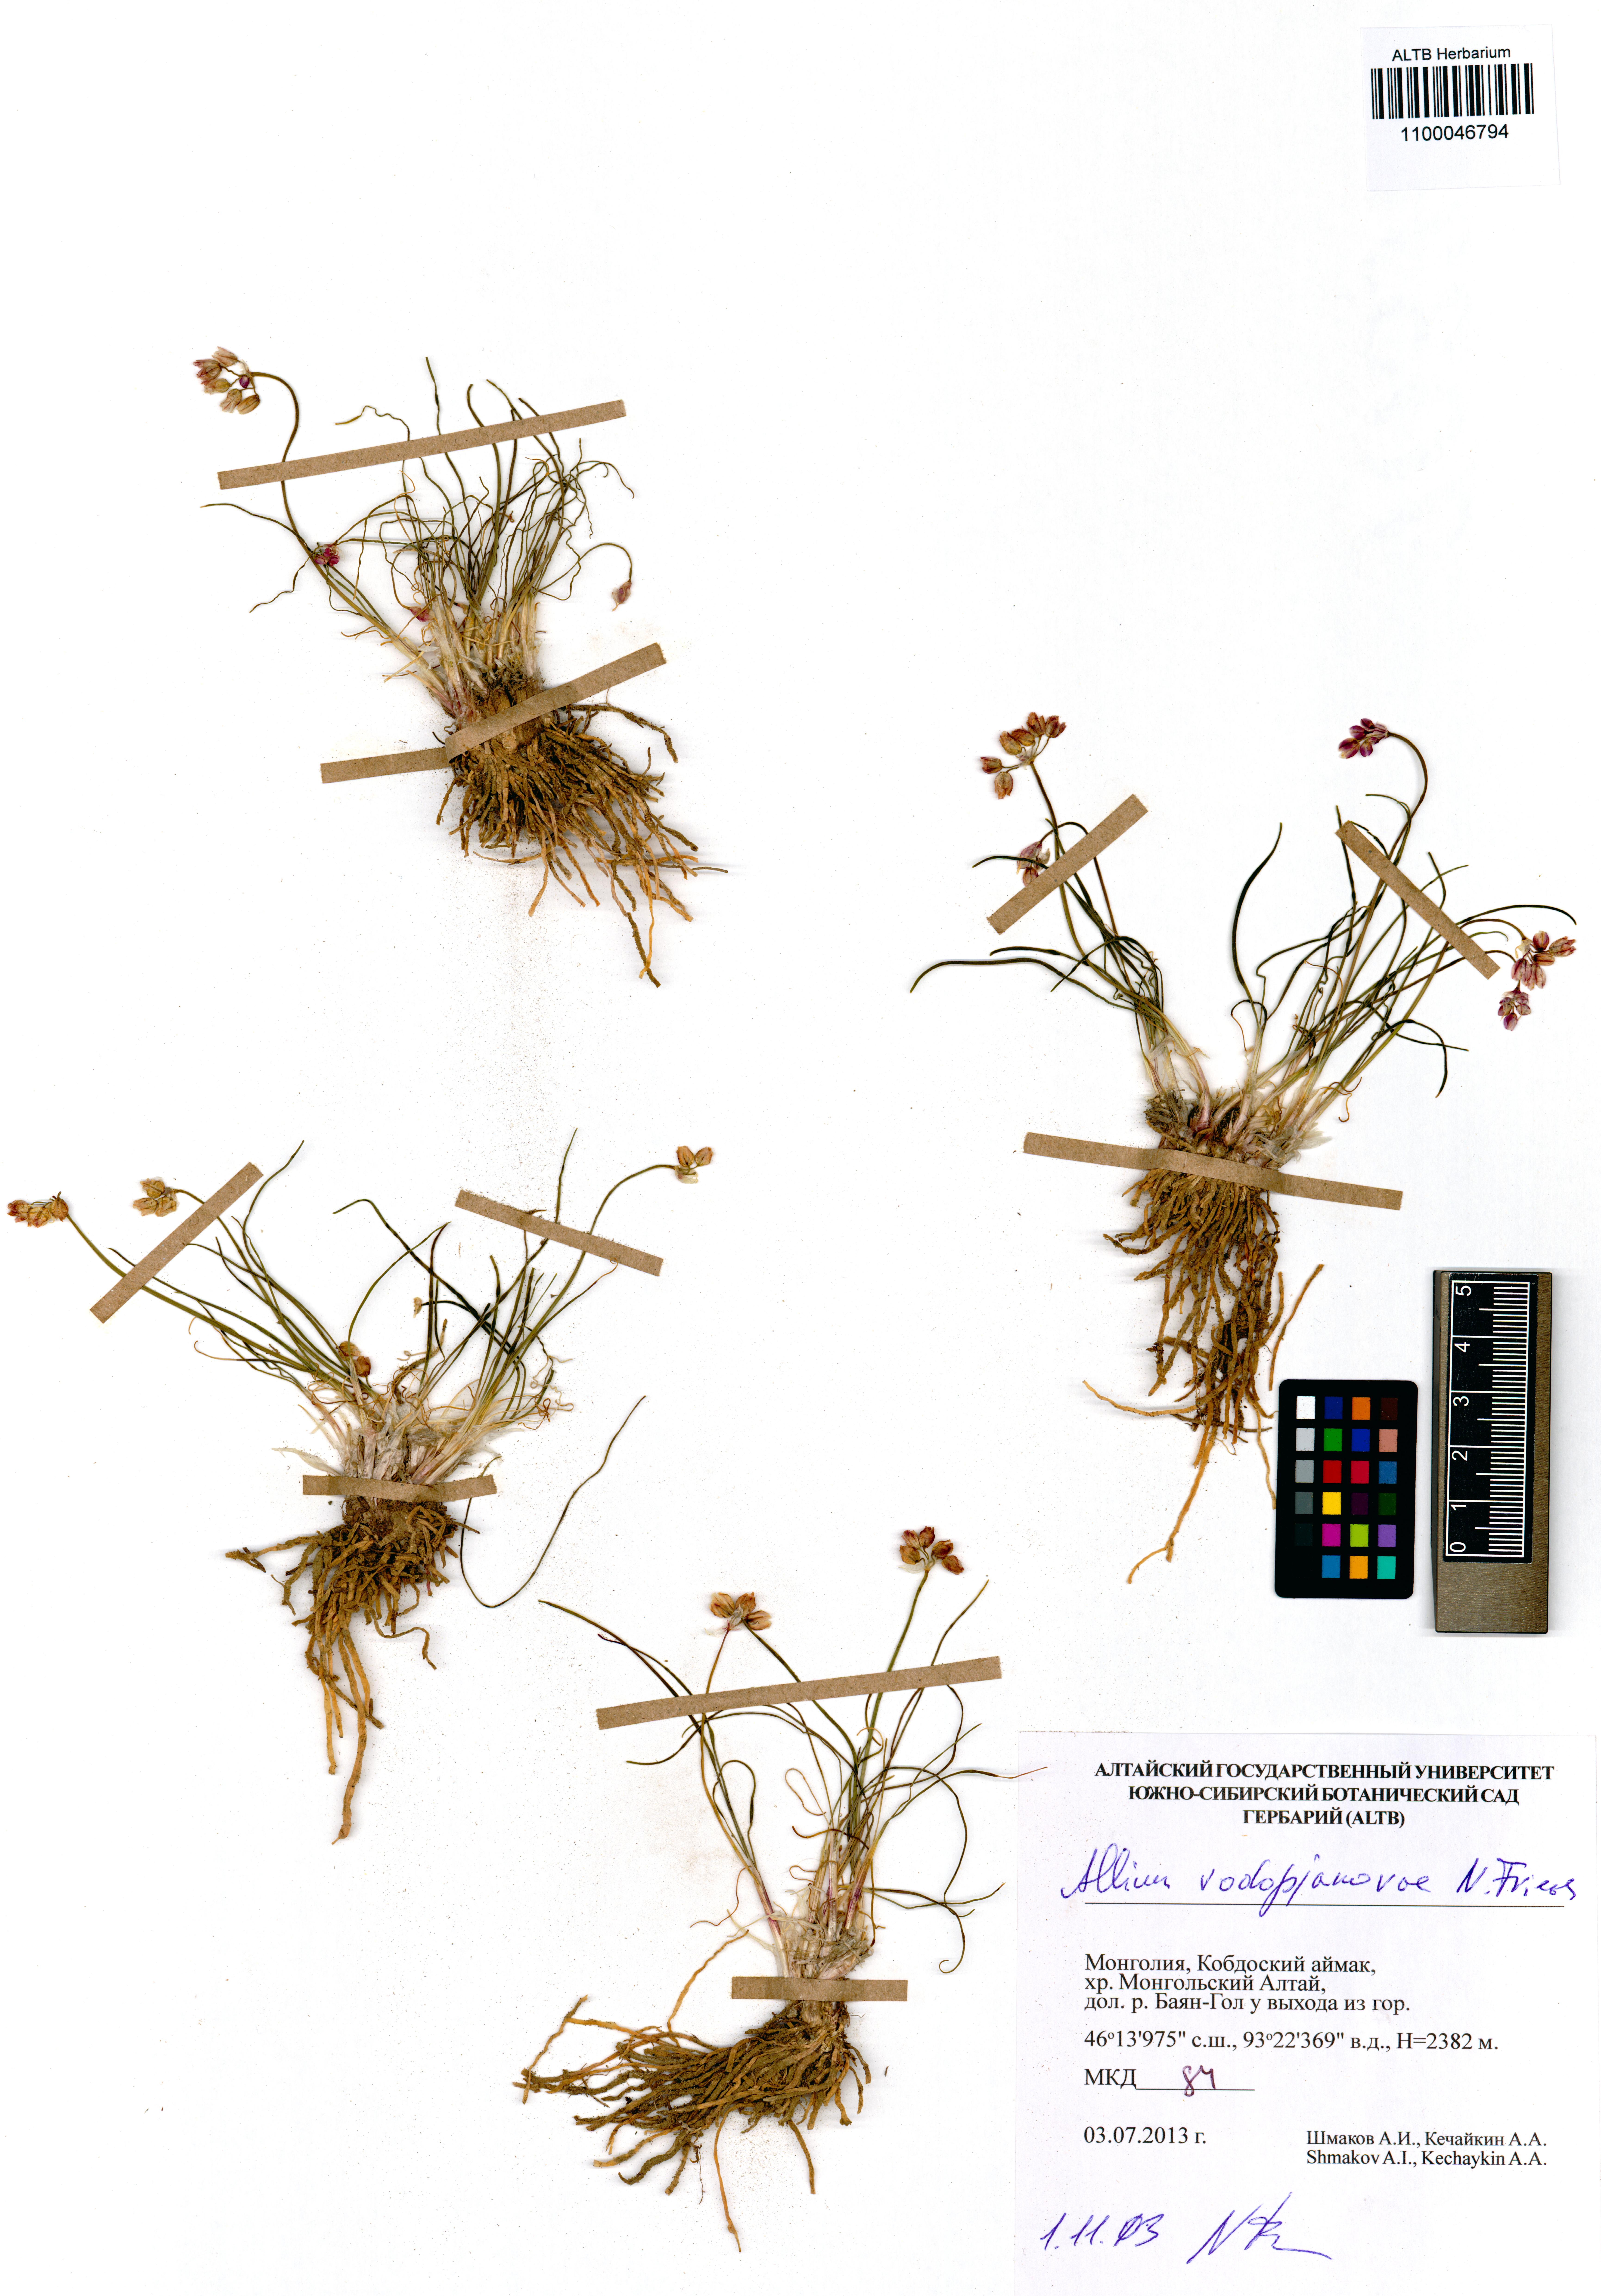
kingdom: Plantae
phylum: Tracheophyta
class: Liliopsida
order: Asparagales
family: Amaryllidaceae
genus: Allium
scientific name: Allium vodopjanovae
